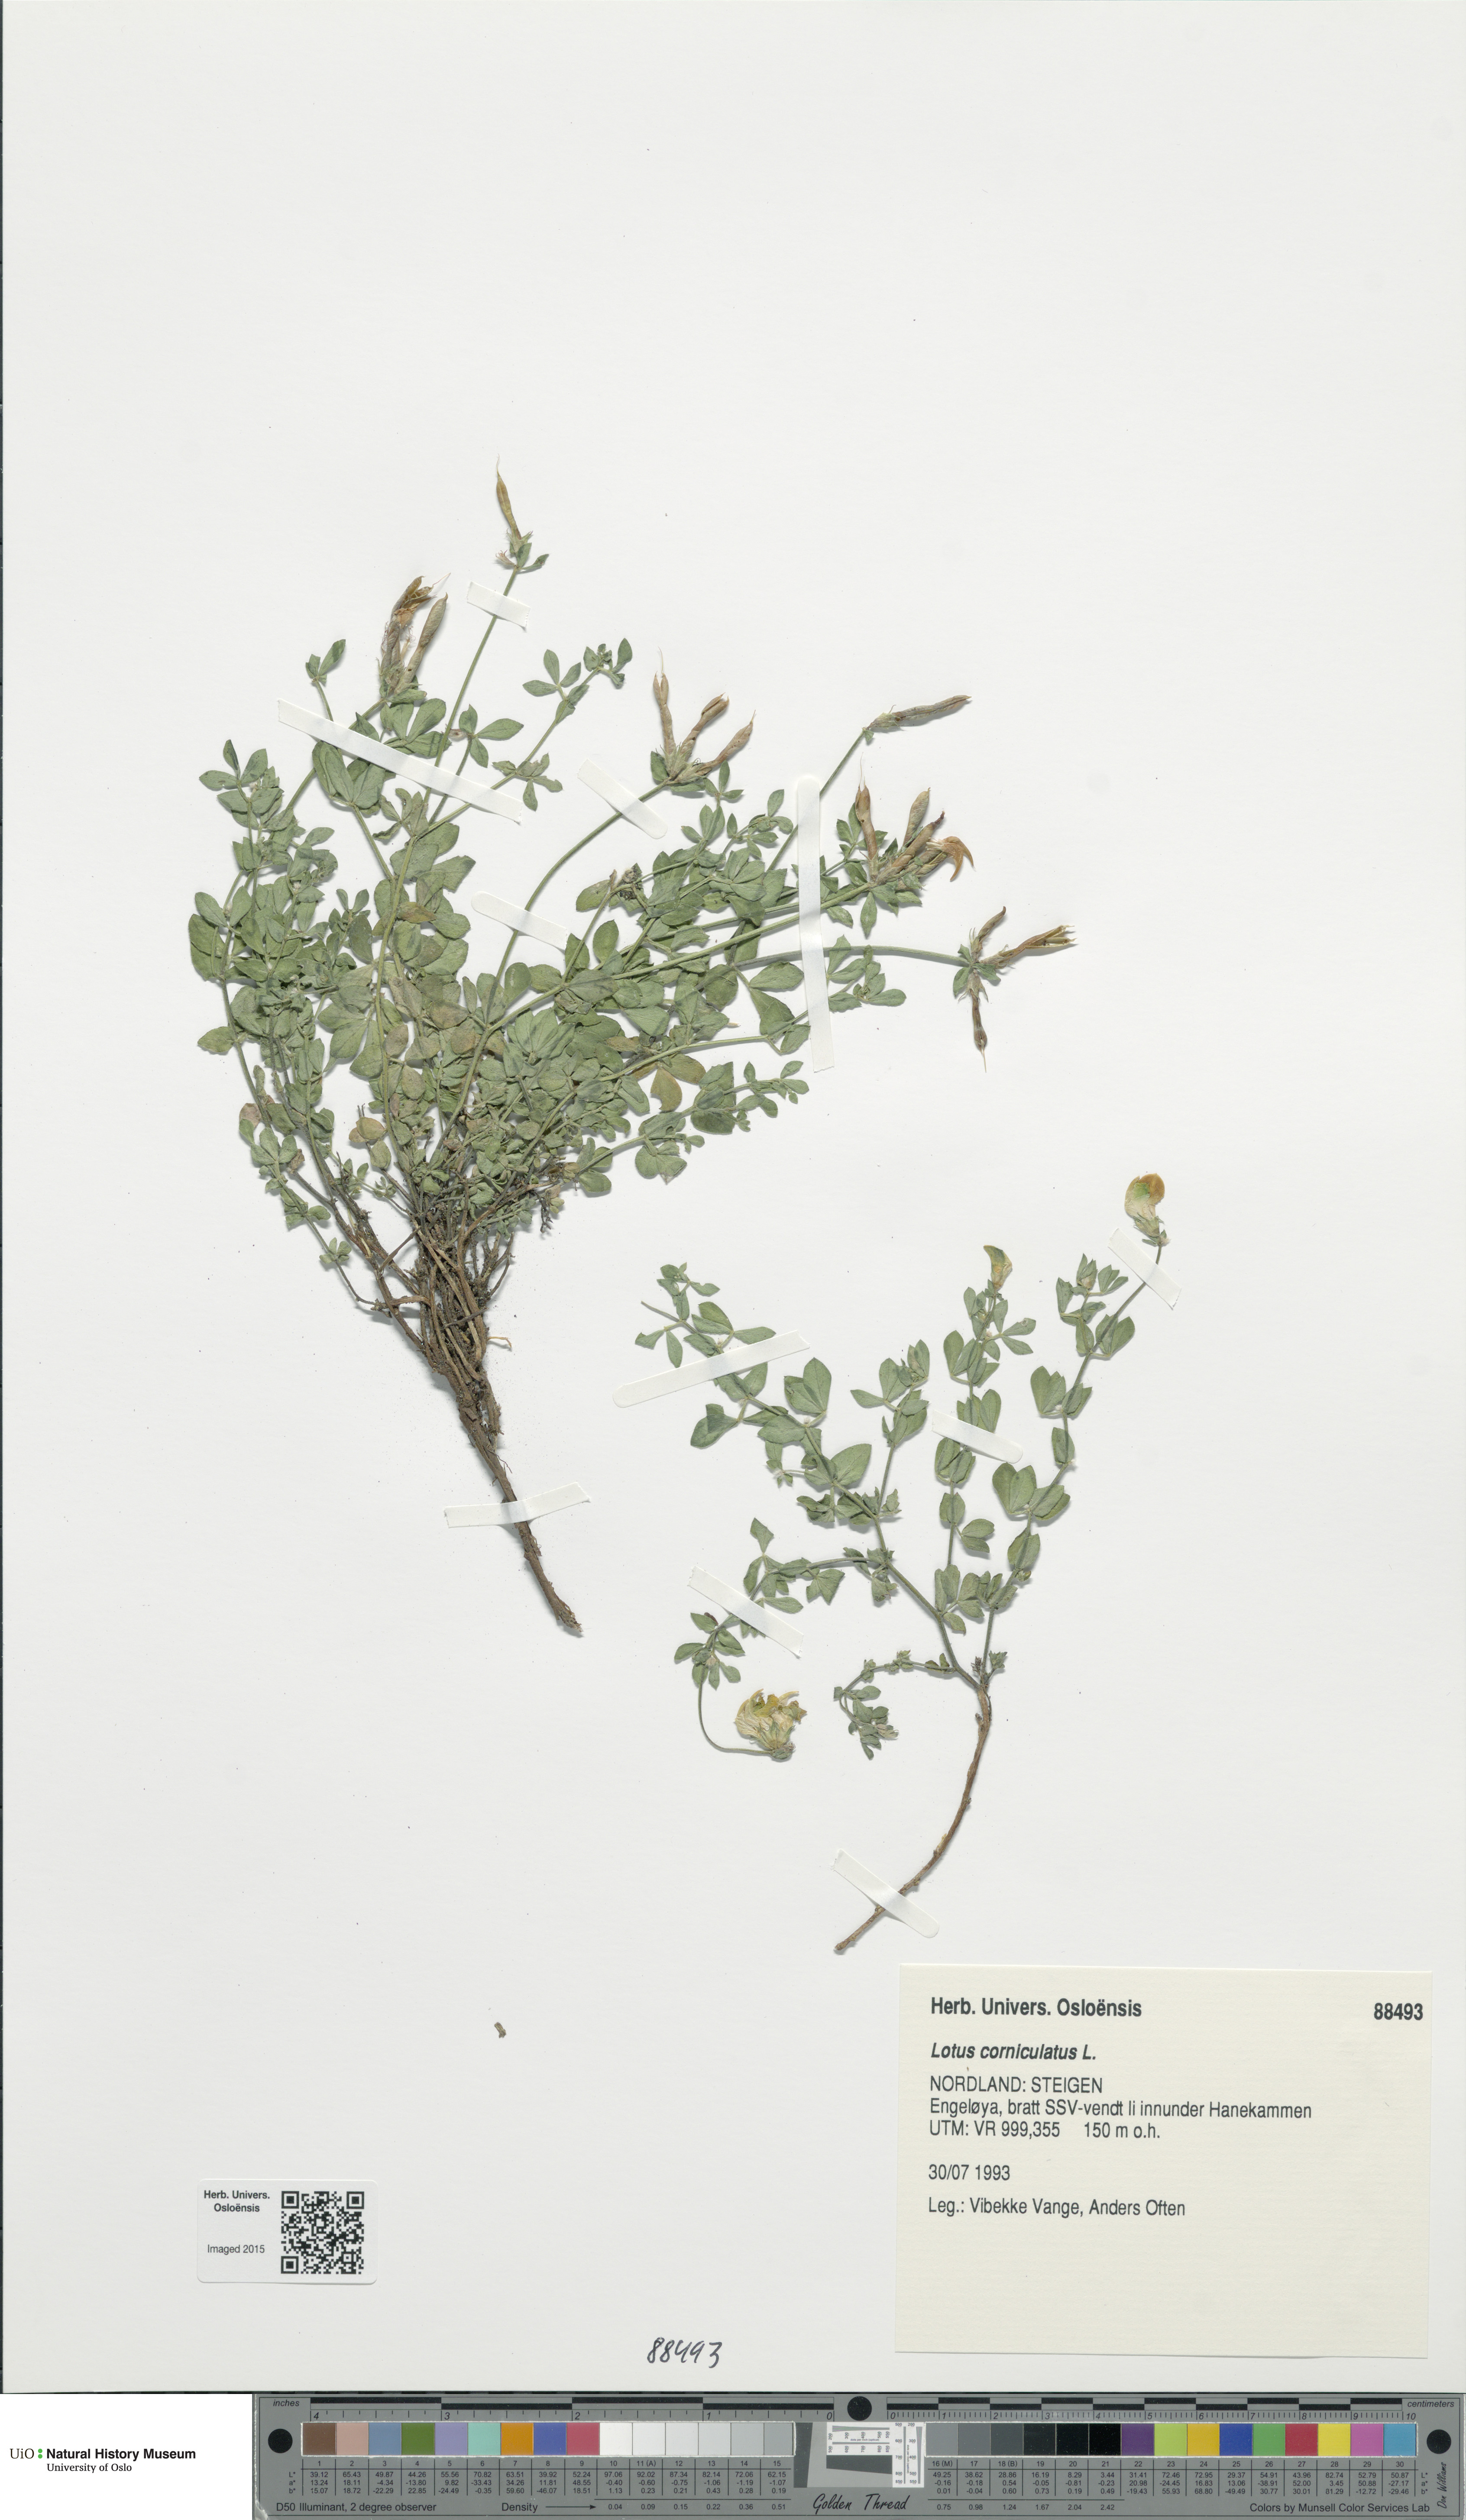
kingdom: Plantae
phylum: Tracheophyta
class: Magnoliopsida
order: Fabales
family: Fabaceae
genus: Lotus
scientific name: Lotus corniculatus
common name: Common bird's-foot-trefoil
